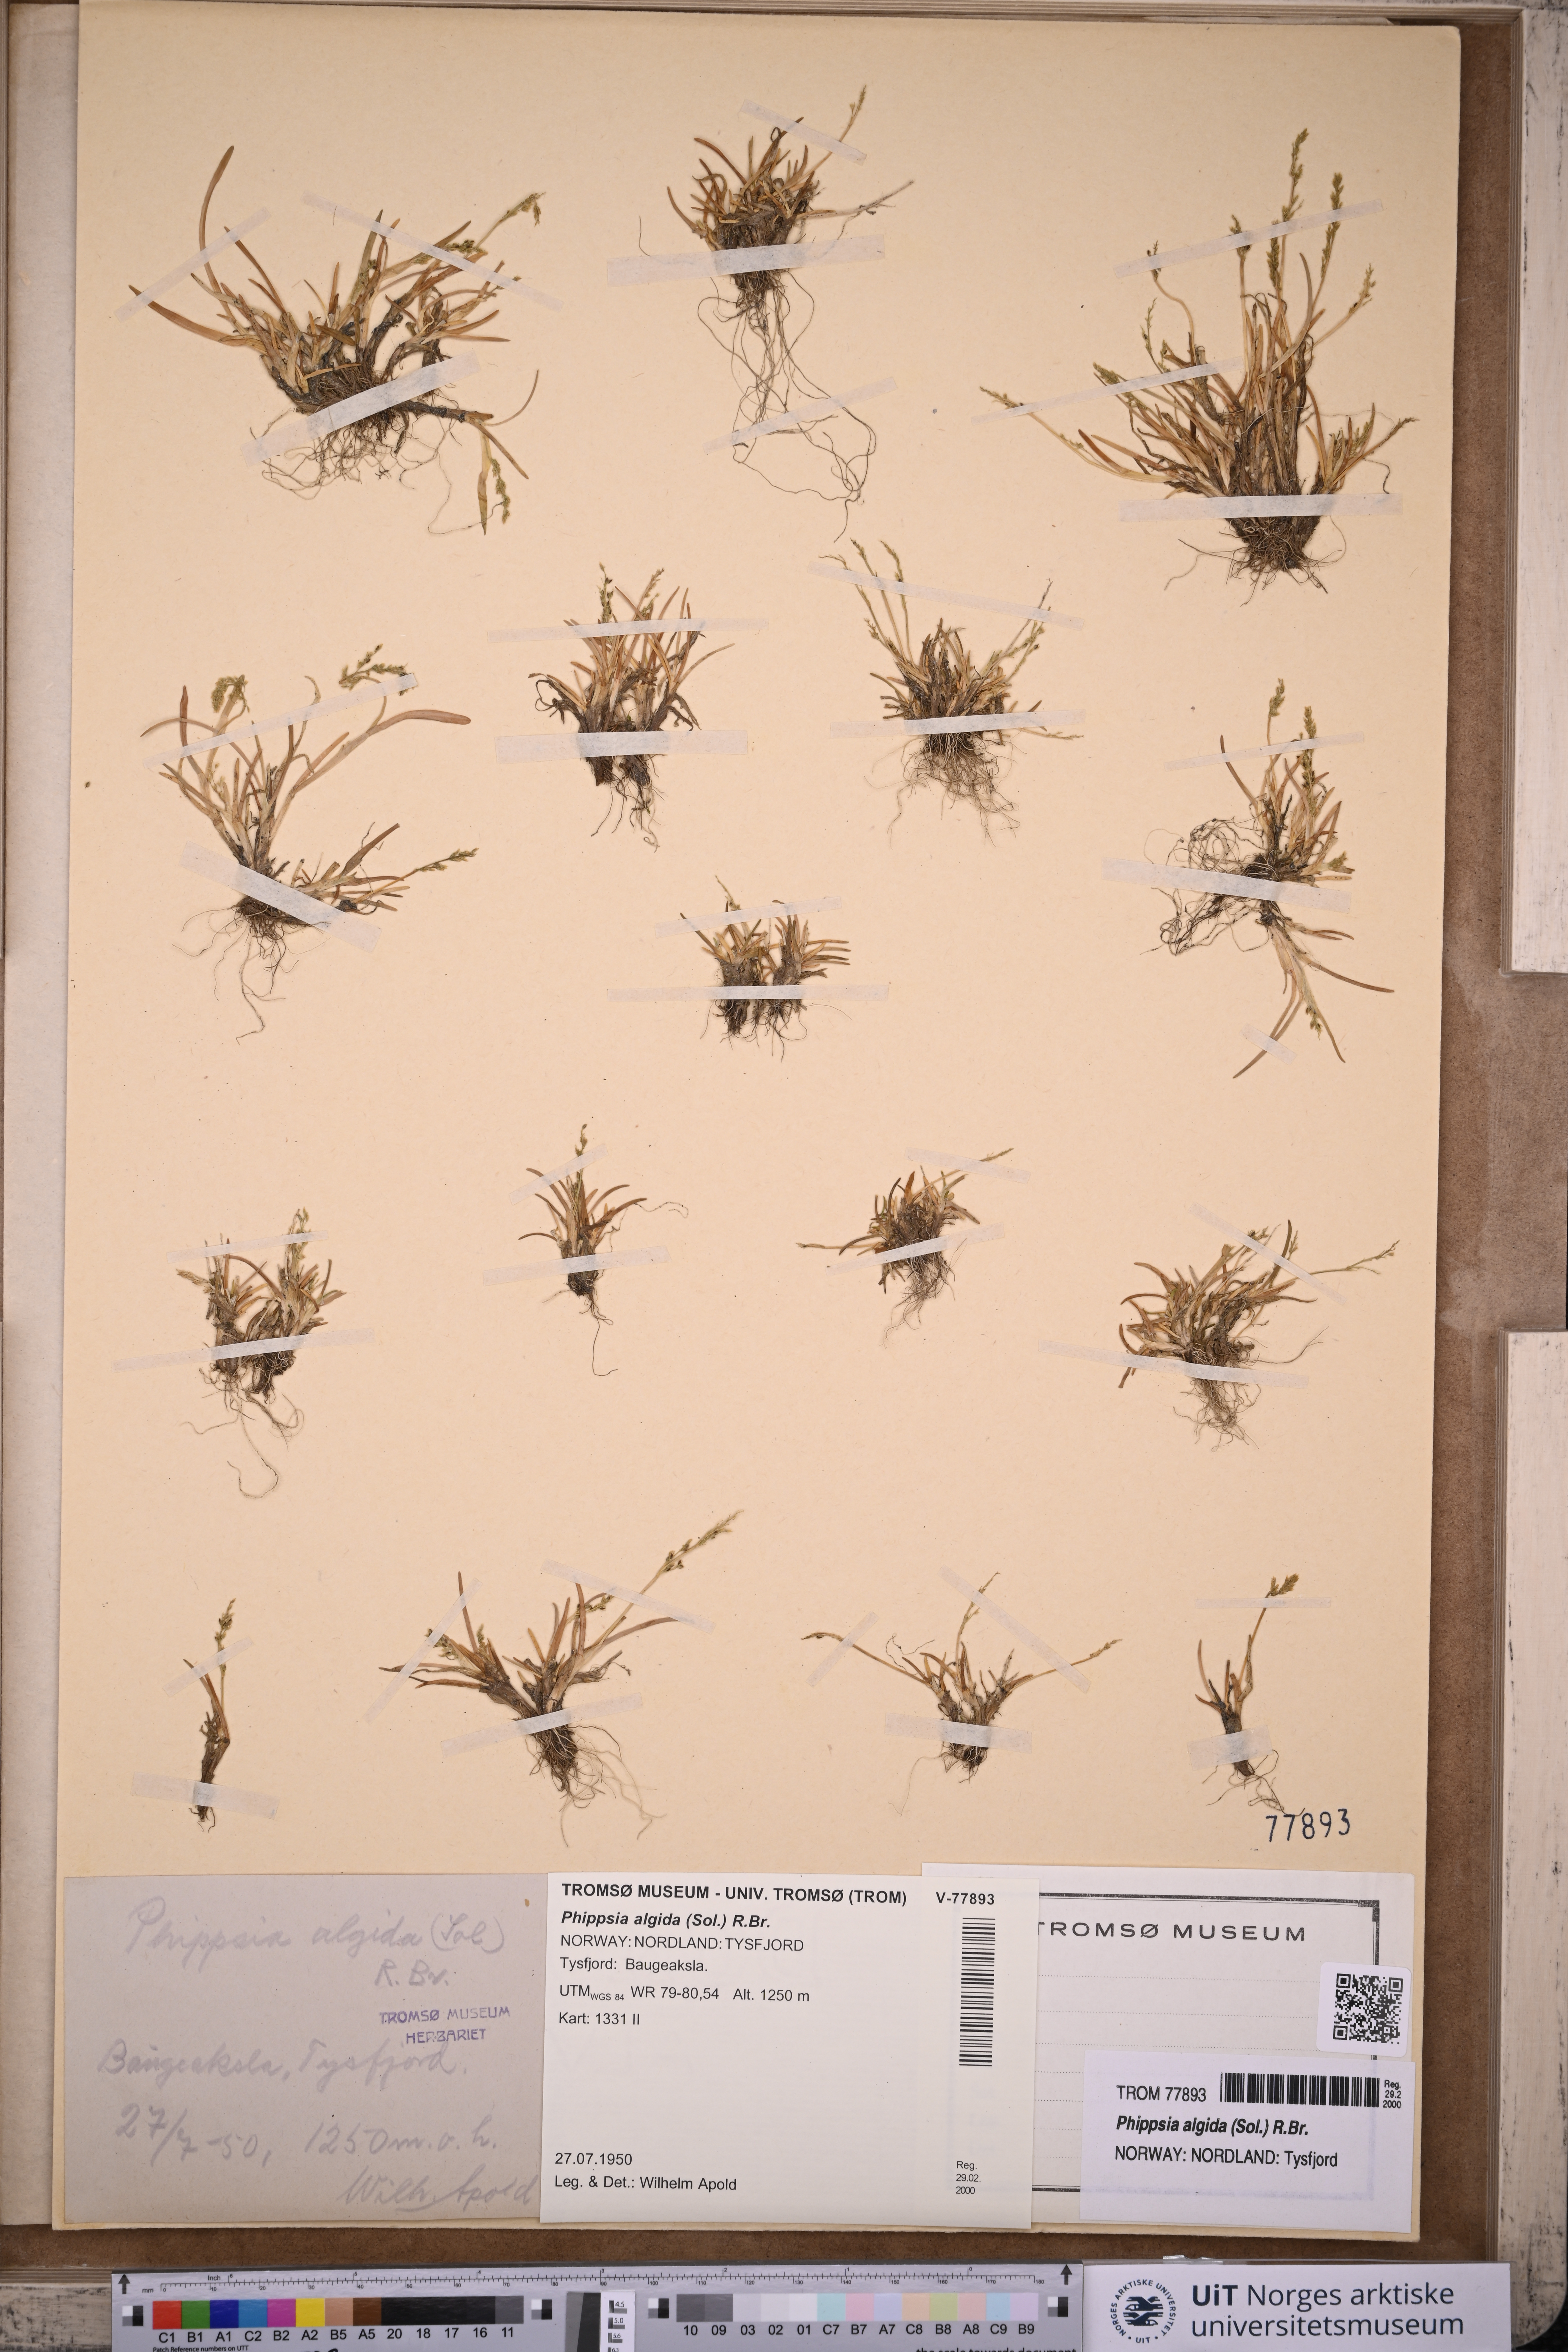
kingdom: Plantae
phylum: Tracheophyta
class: Liliopsida
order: Poales
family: Poaceae
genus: Phippsia
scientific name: Phippsia algida
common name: Ice grass
